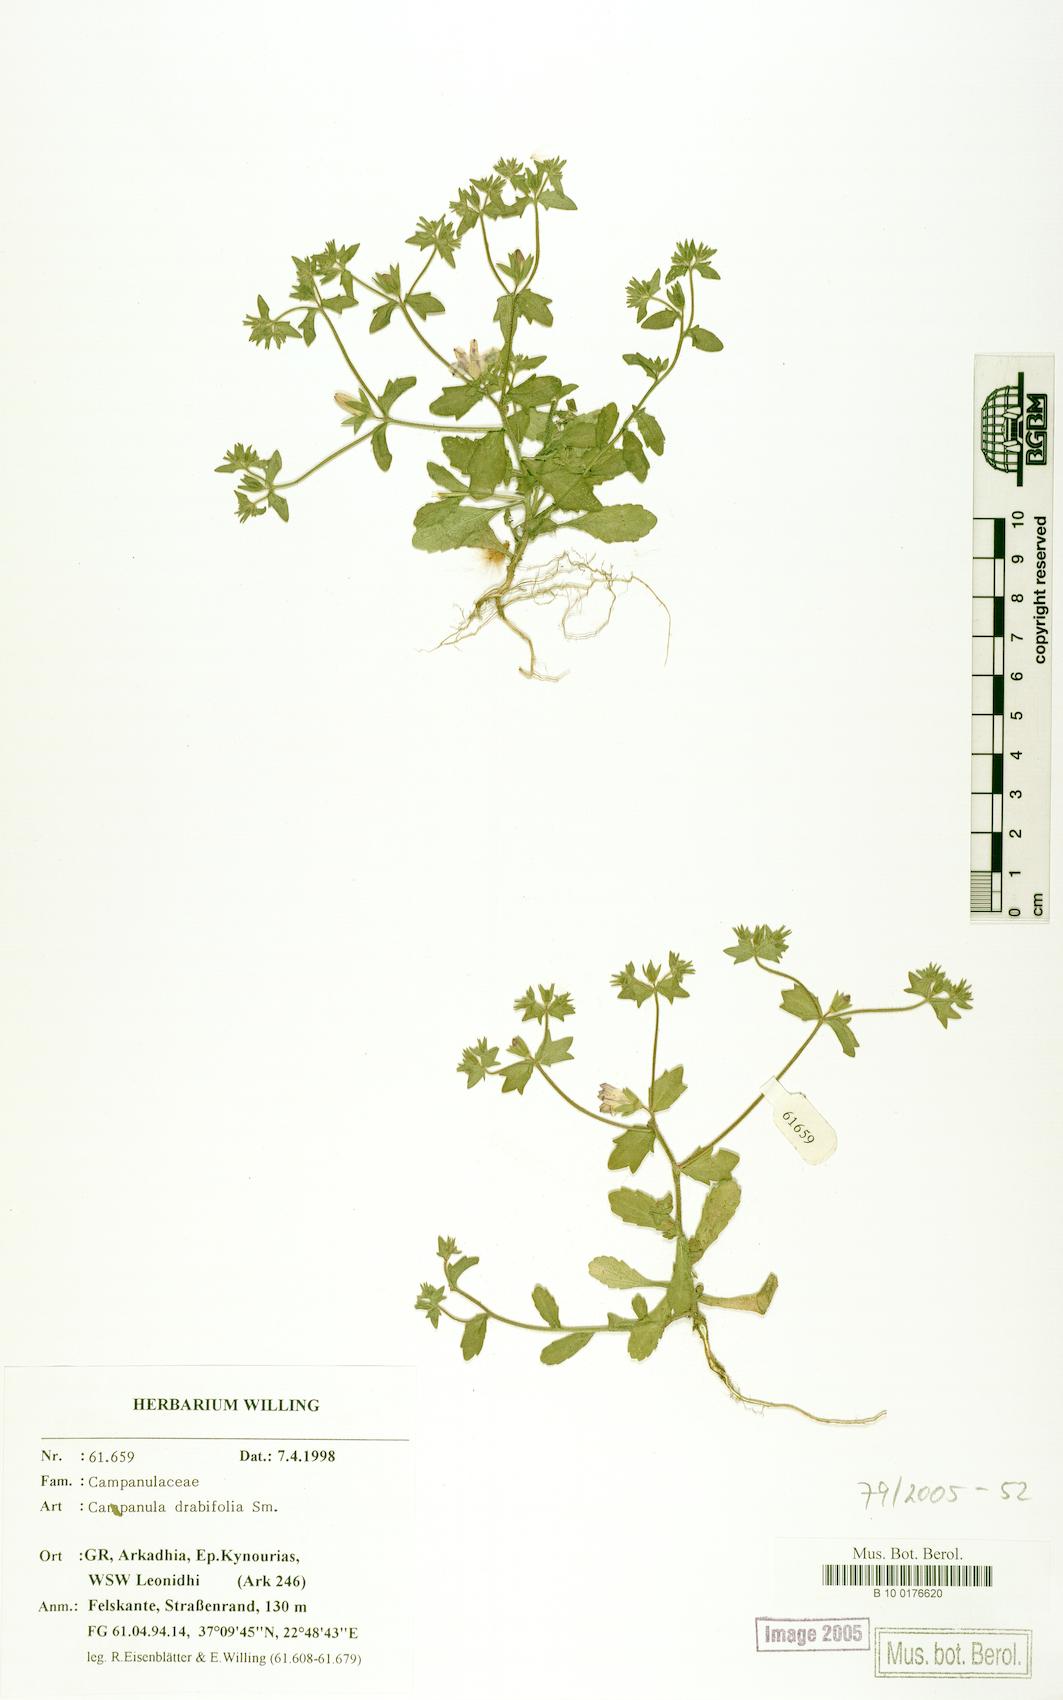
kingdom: Plantae
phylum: Tracheophyta
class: Magnoliopsida
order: Asterales
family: Campanulaceae
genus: Campanula
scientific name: Campanula drabifolia
